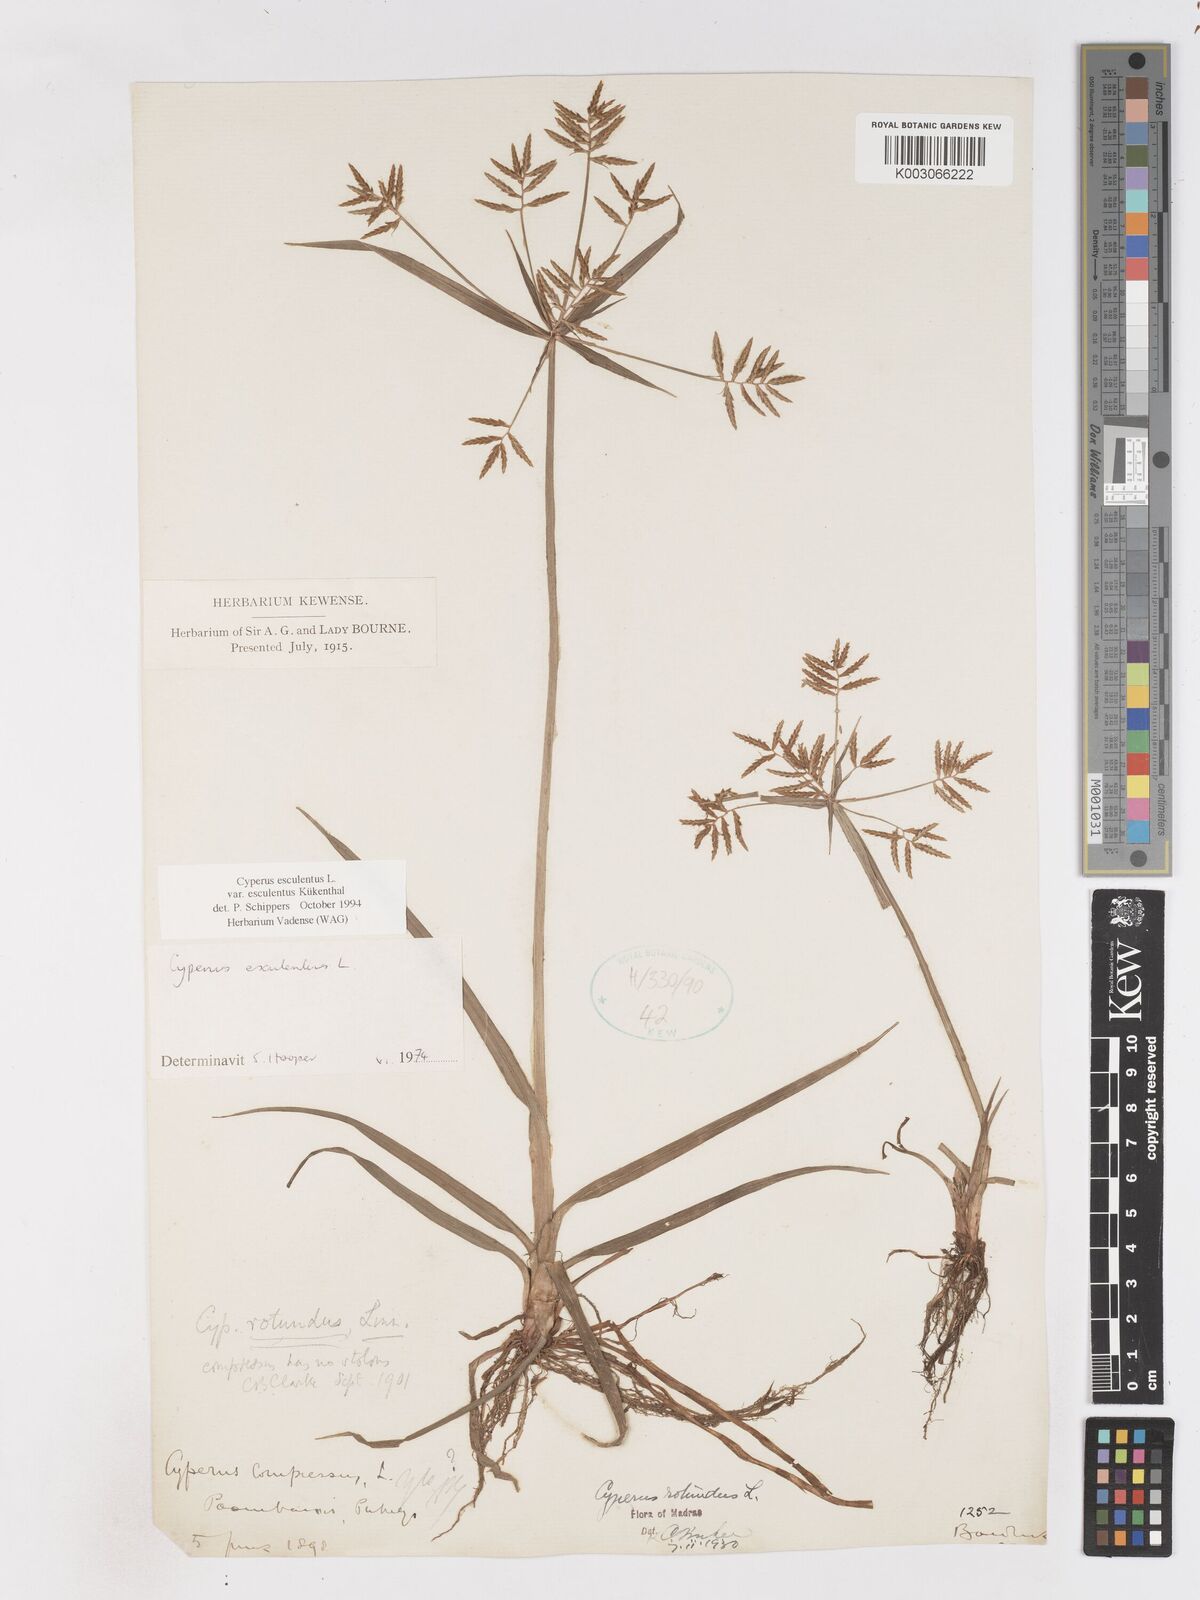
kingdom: Plantae
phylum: Tracheophyta
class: Liliopsida
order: Poales
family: Cyperaceae
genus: Cyperus
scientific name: Cyperus esculentus
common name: Yellow nutsedge
